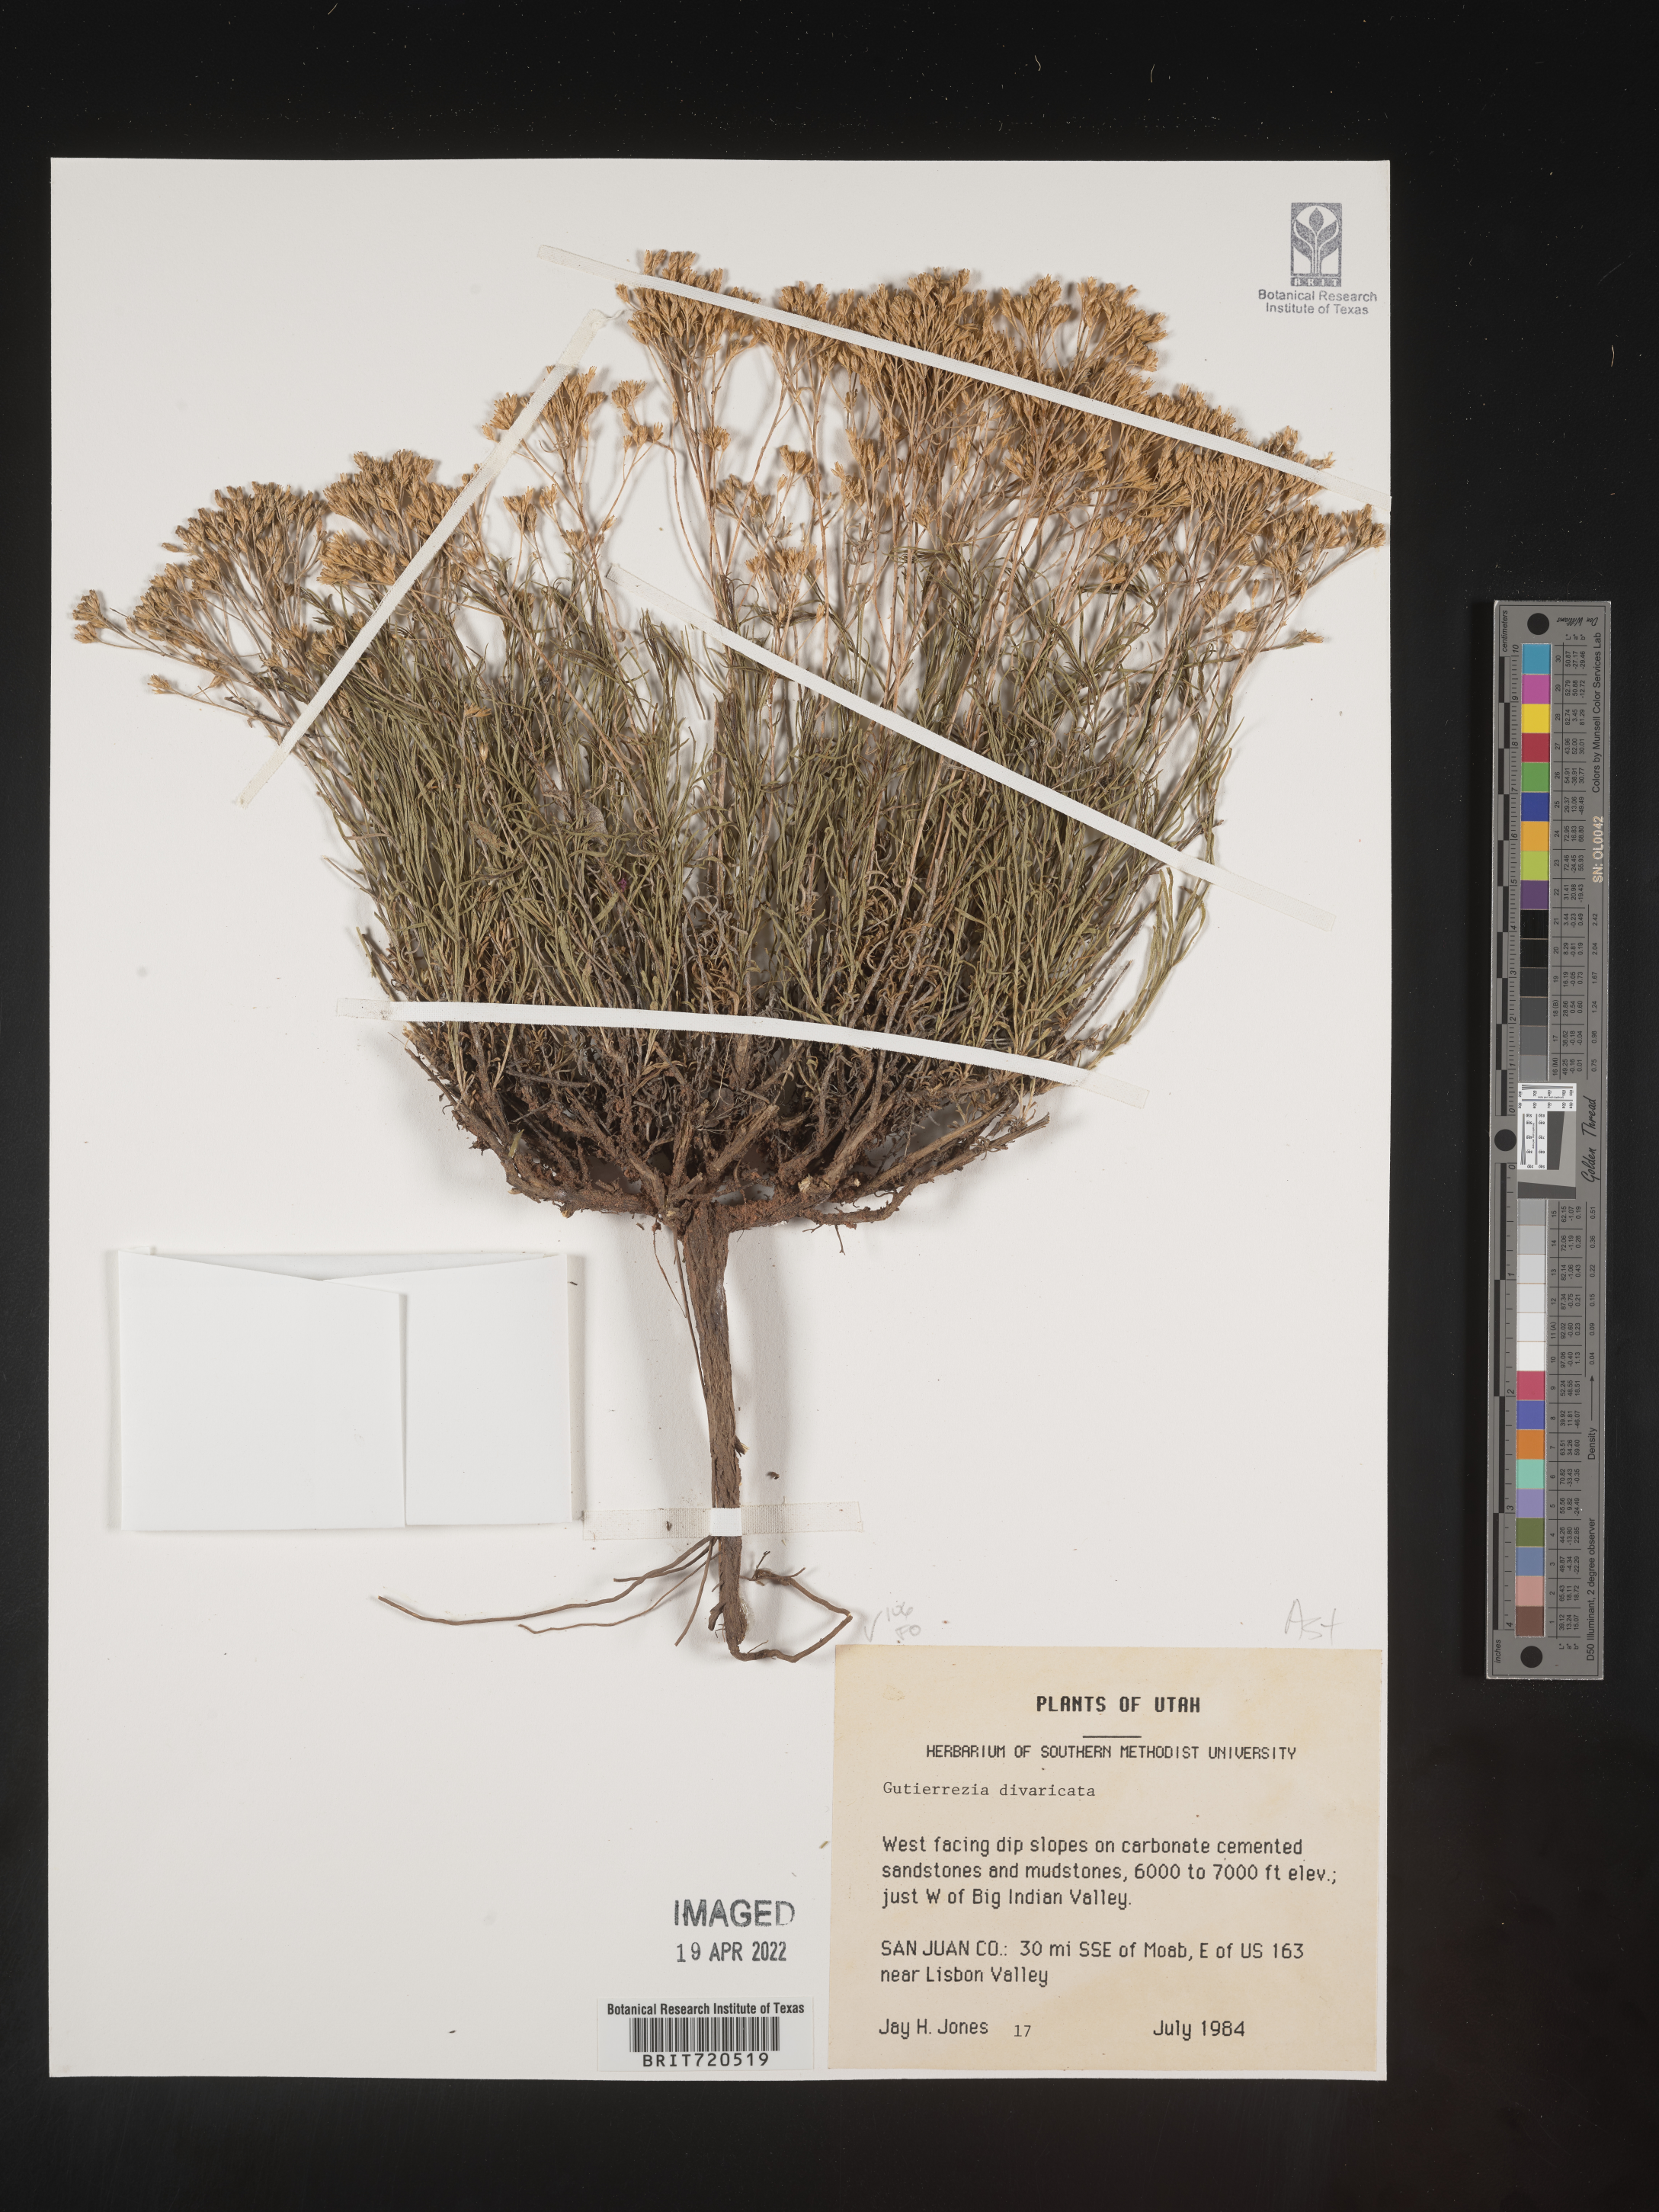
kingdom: Plantae
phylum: Tracheophyta
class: Magnoliopsida
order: Asterales
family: Asteraceae
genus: Gutierrezia
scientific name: Gutierrezia
